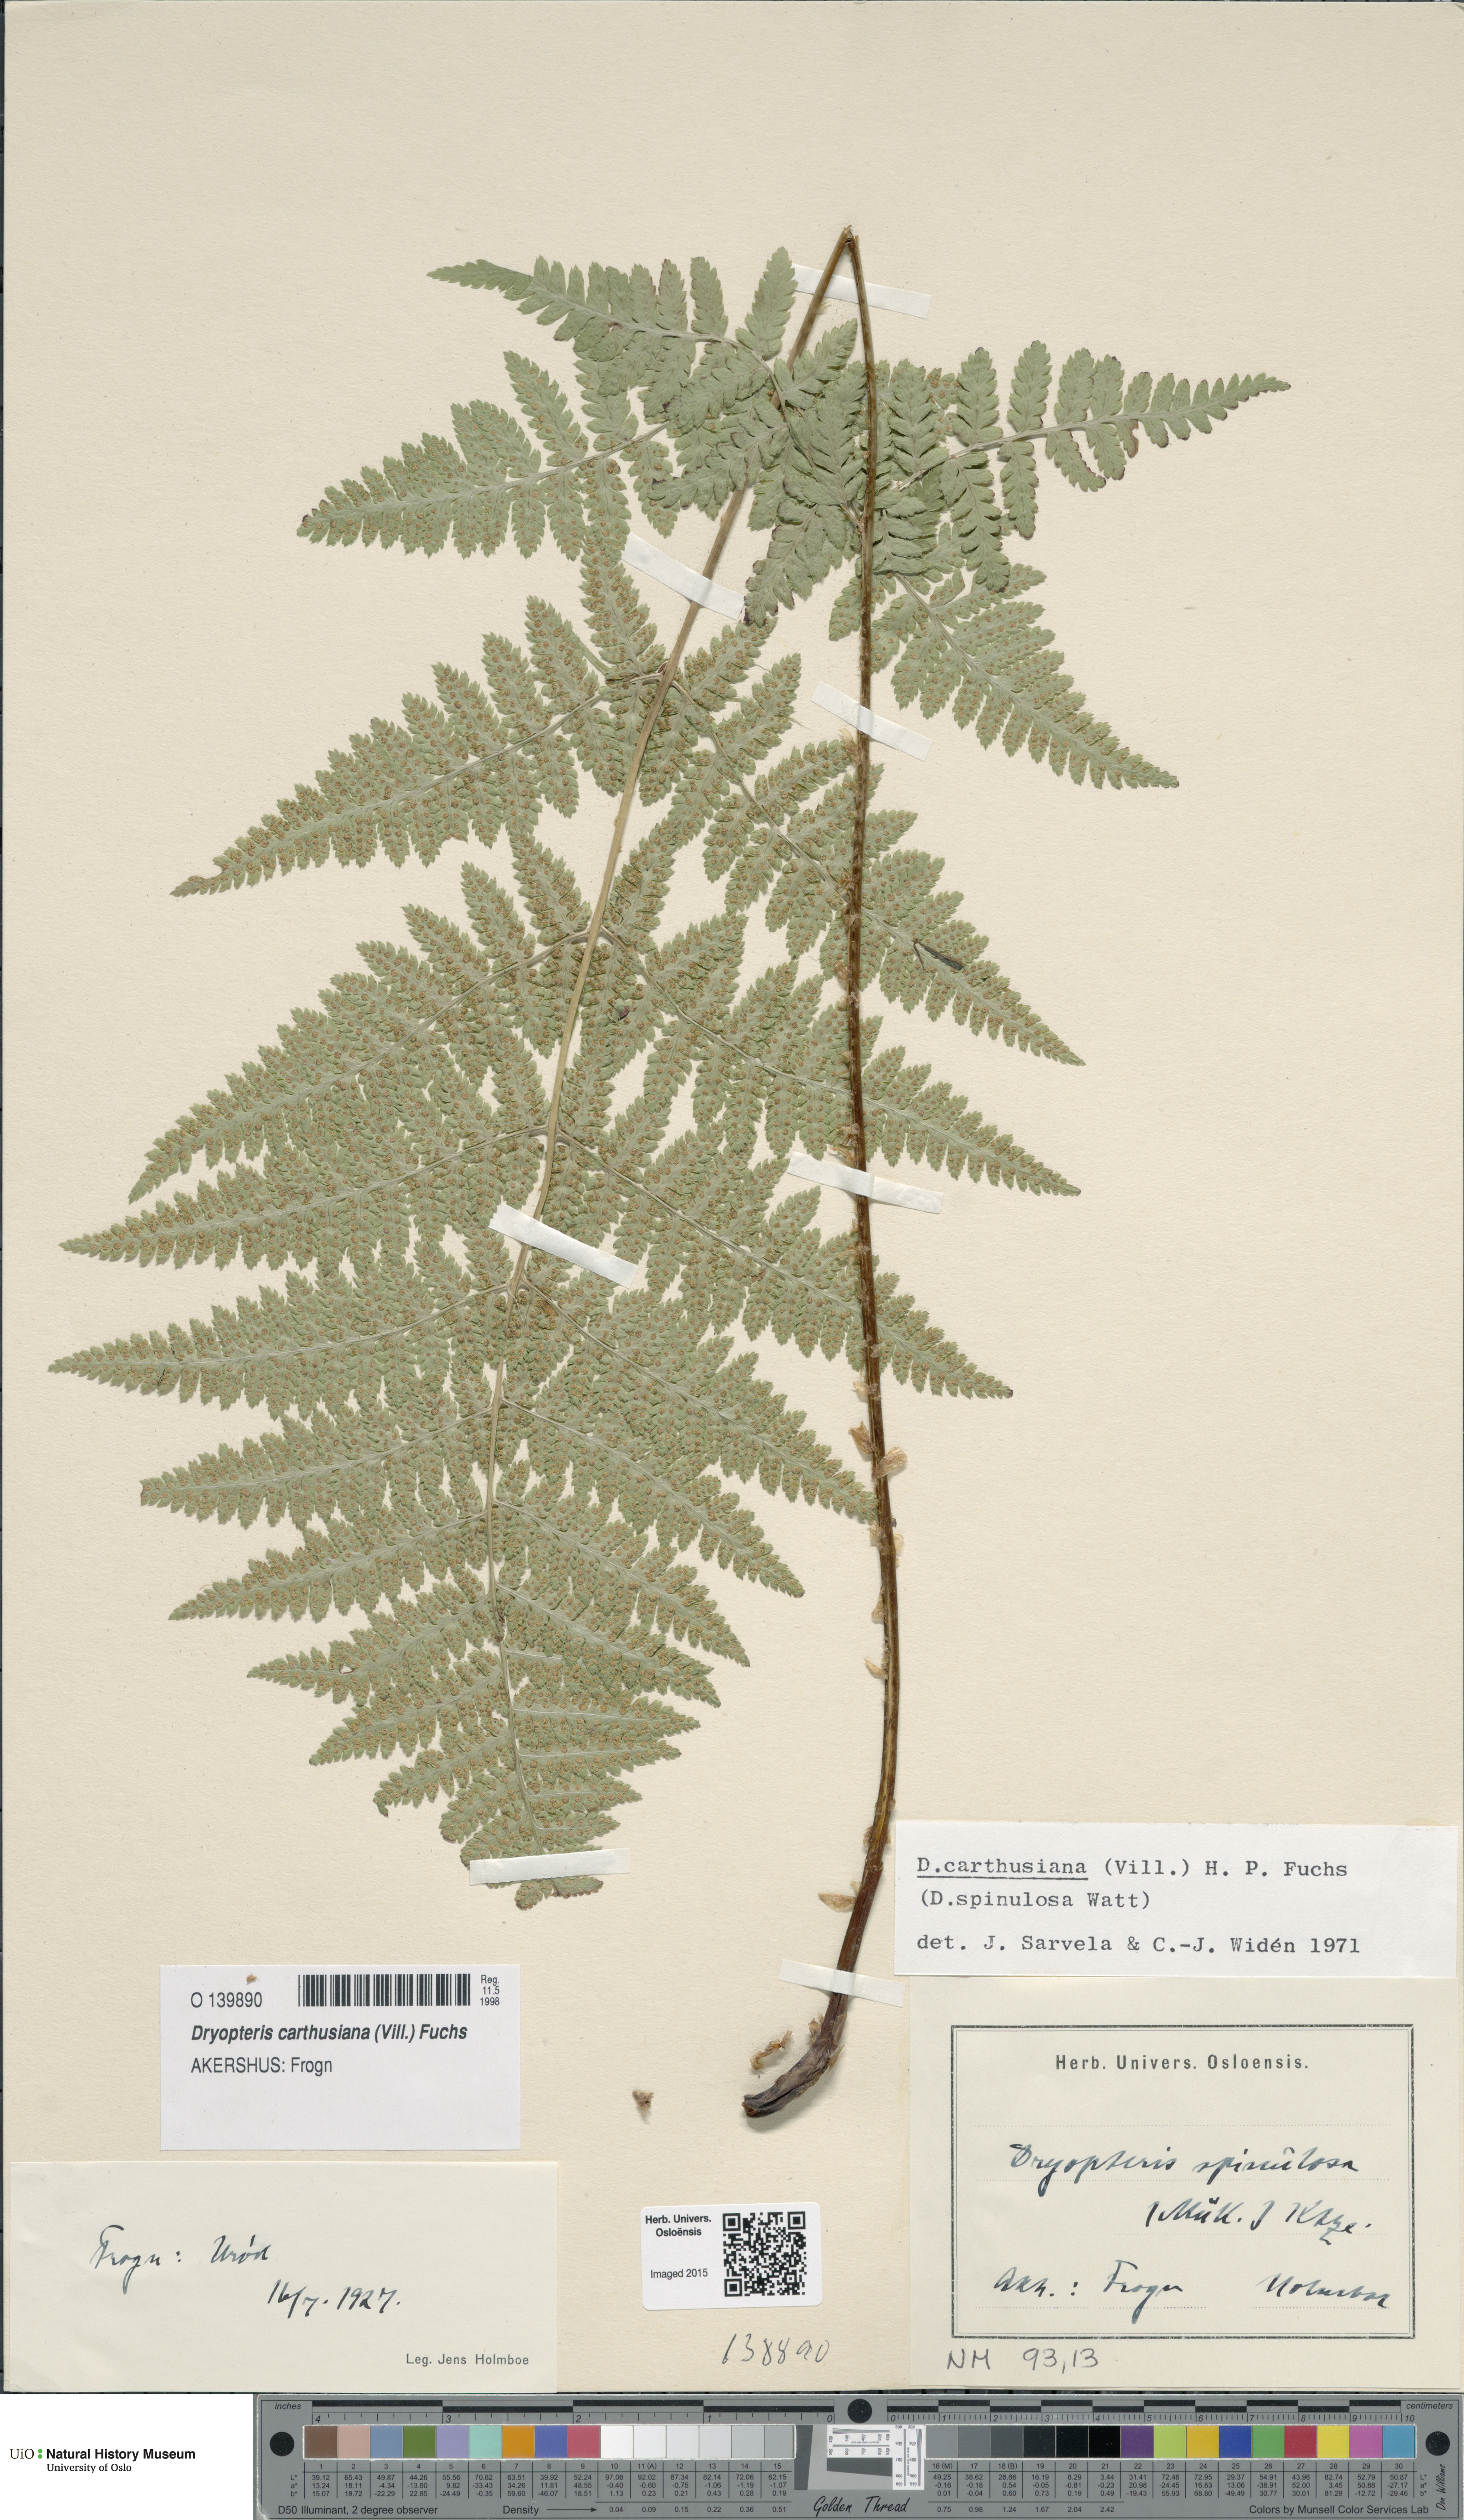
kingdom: Plantae
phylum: Tracheophyta
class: Polypodiopsida
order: Polypodiales
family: Dryopteridaceae
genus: Dryopteris
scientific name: Dryopteris carthusiana
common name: Narrow buckler-fern
